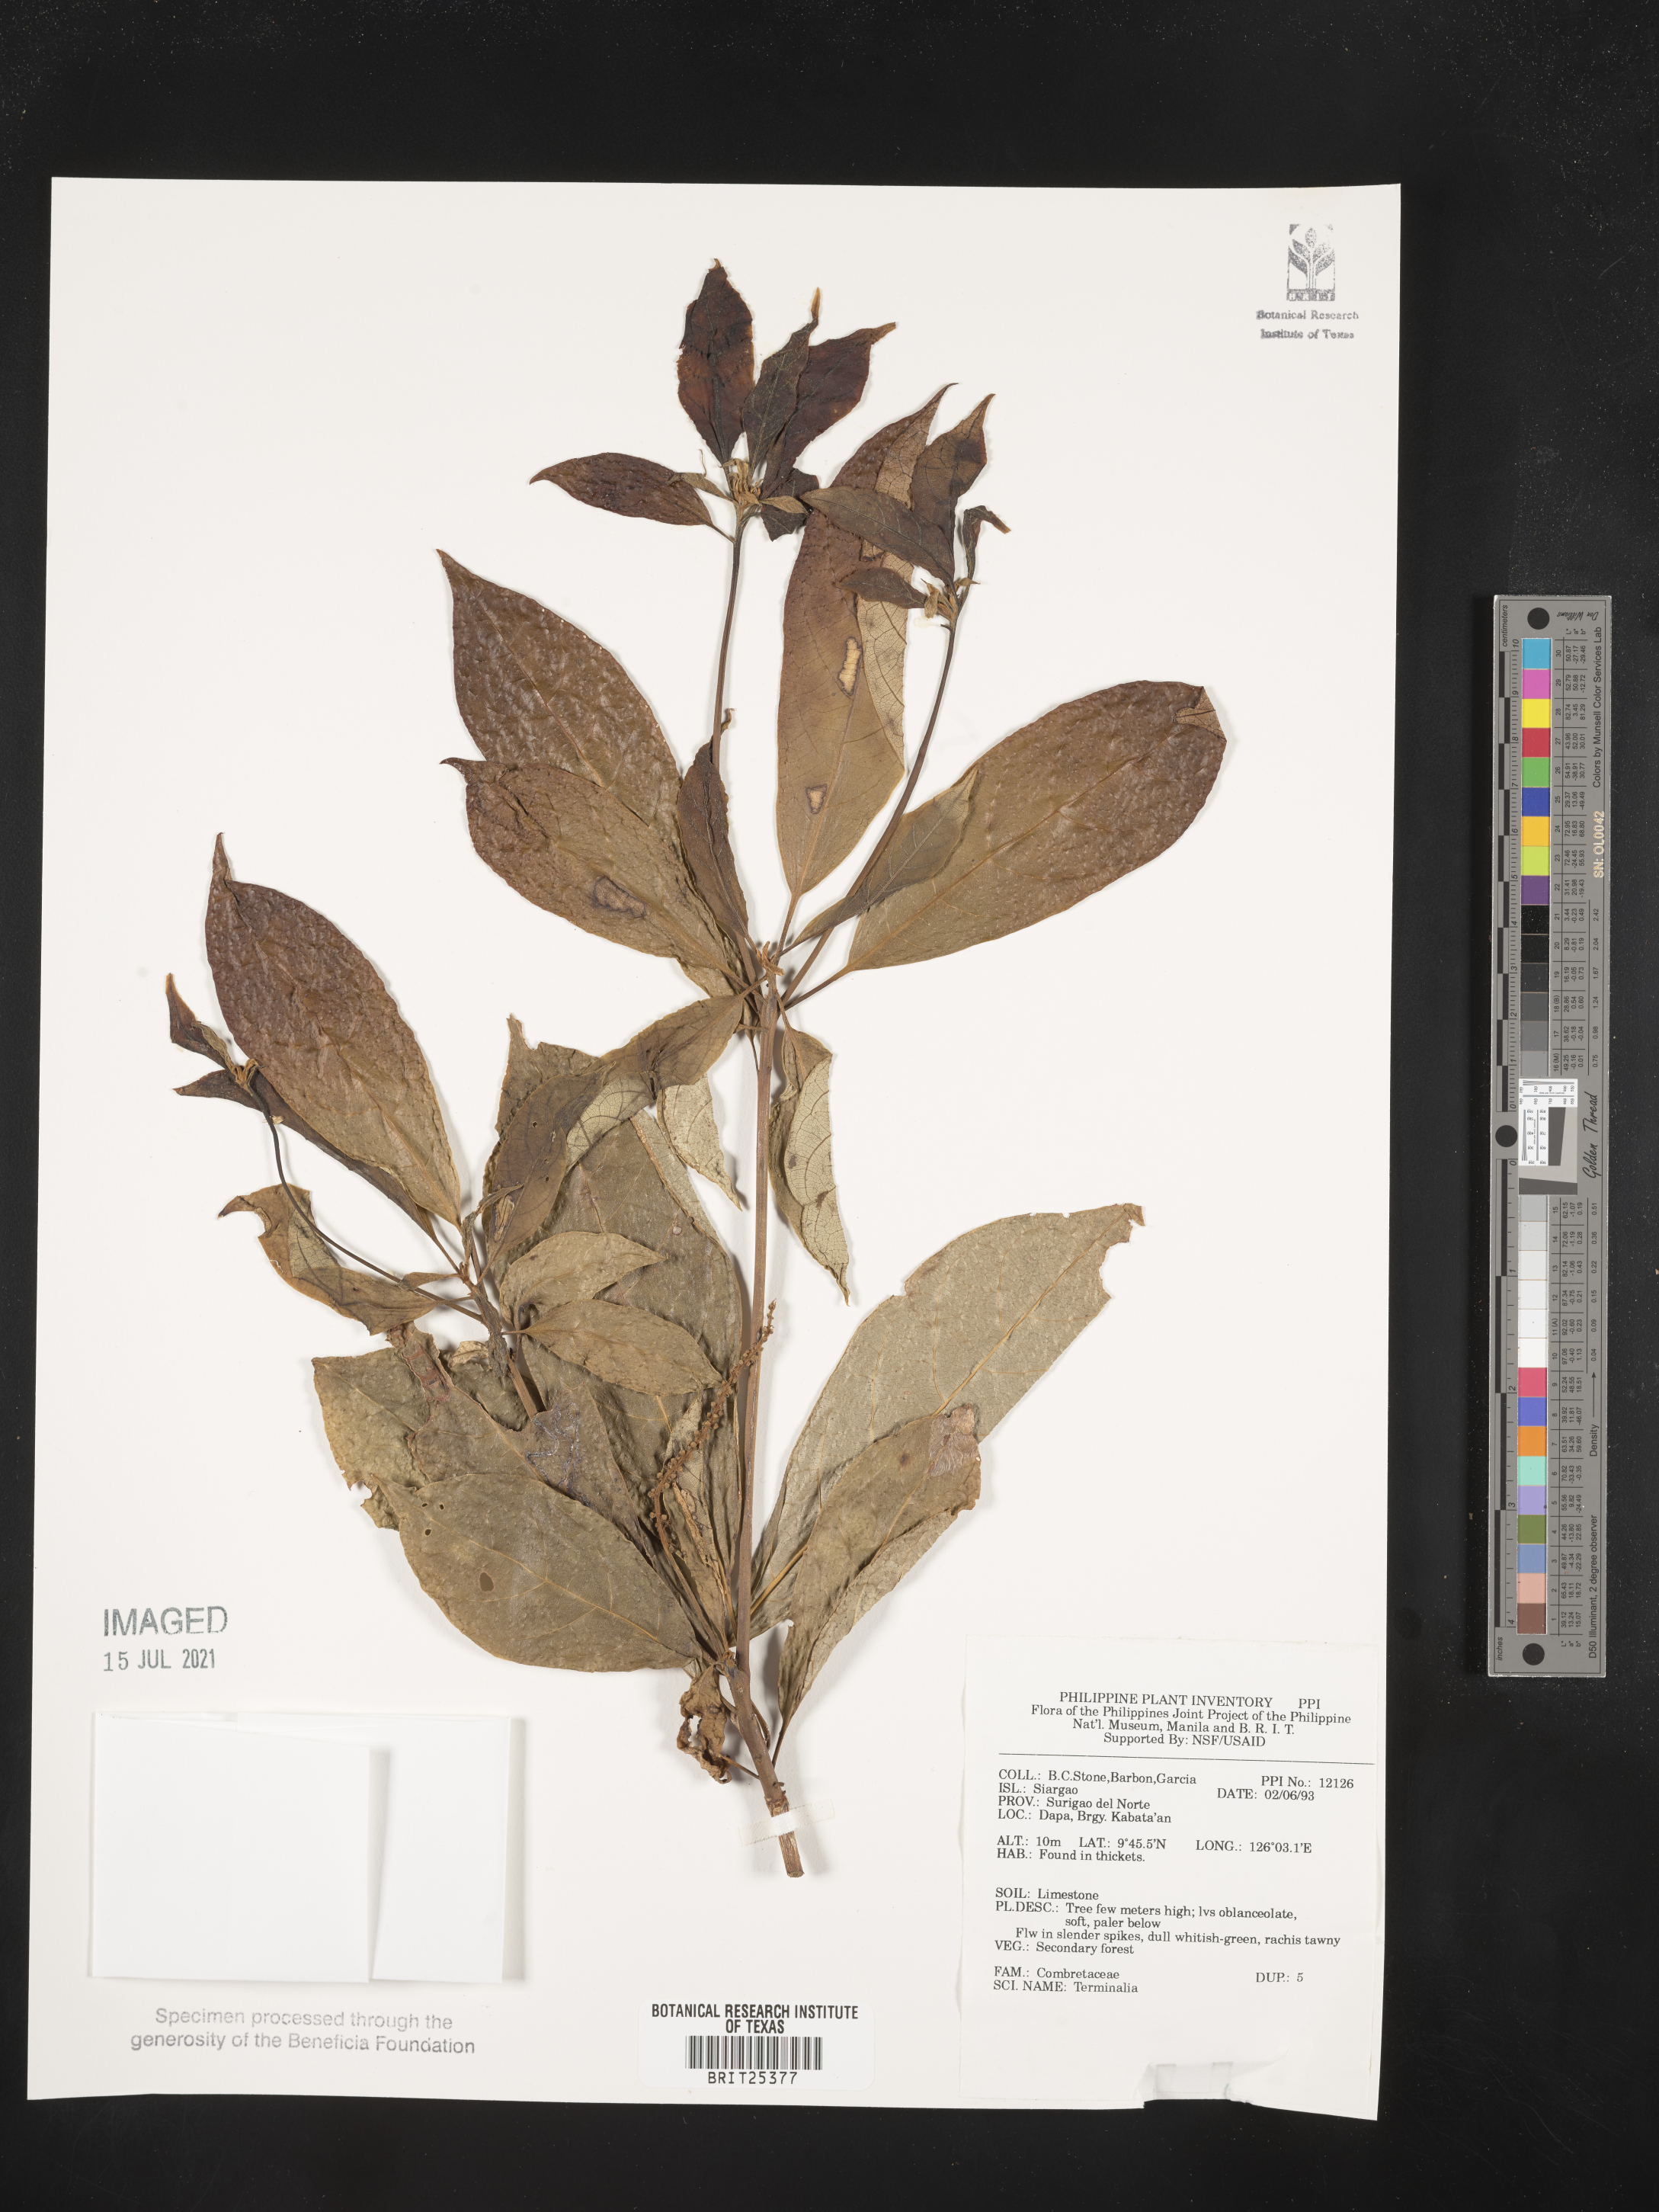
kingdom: Plantae
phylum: Tracheophyta
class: Magnoliopsida
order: Myrtales
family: Combretaceae
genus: Terminalia
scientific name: Terminalia
